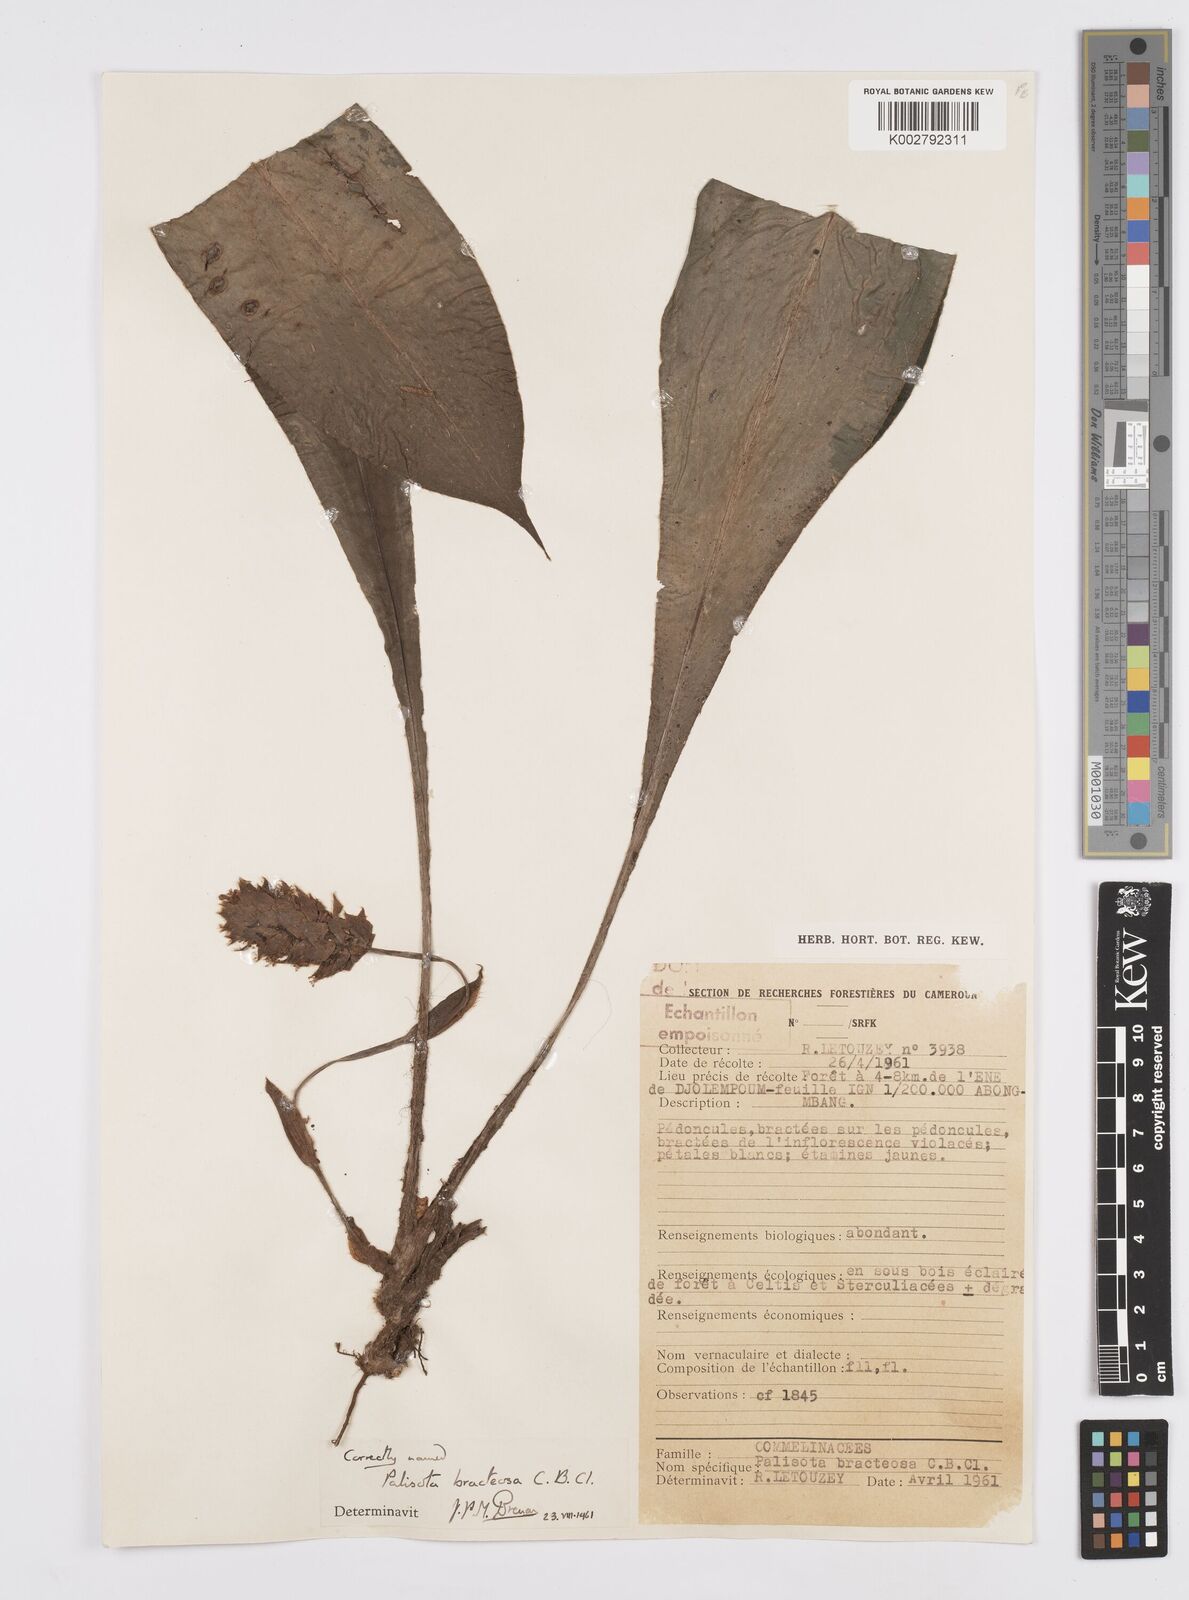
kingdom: Plantae
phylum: Tracheophyta
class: Liliopsida
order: Commelinales
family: Commelinaceae
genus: Palisota
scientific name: Palisota bracteosa
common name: Palisota
